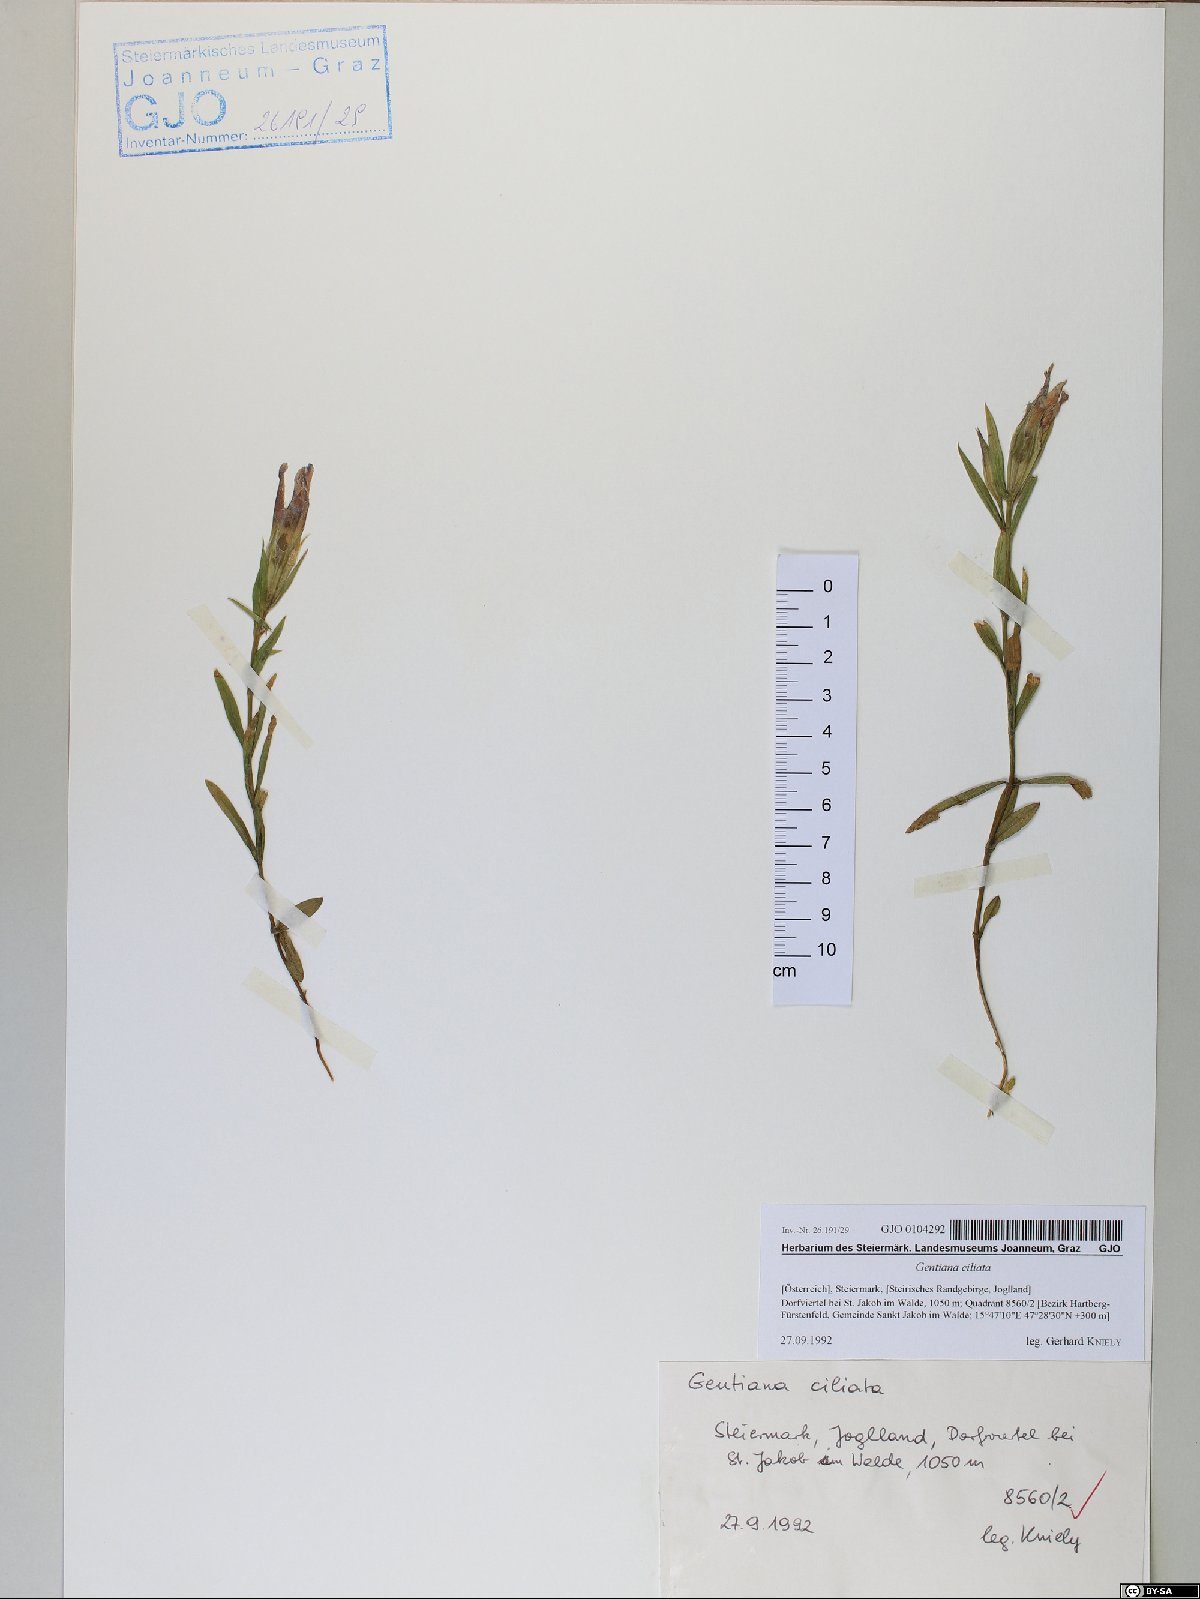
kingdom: Plantae
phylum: Tracheophyta
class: Magnoliopsida
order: Gentianales
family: Gentianaceae
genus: Gentianopsis
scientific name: Gentianopsis ciliata
